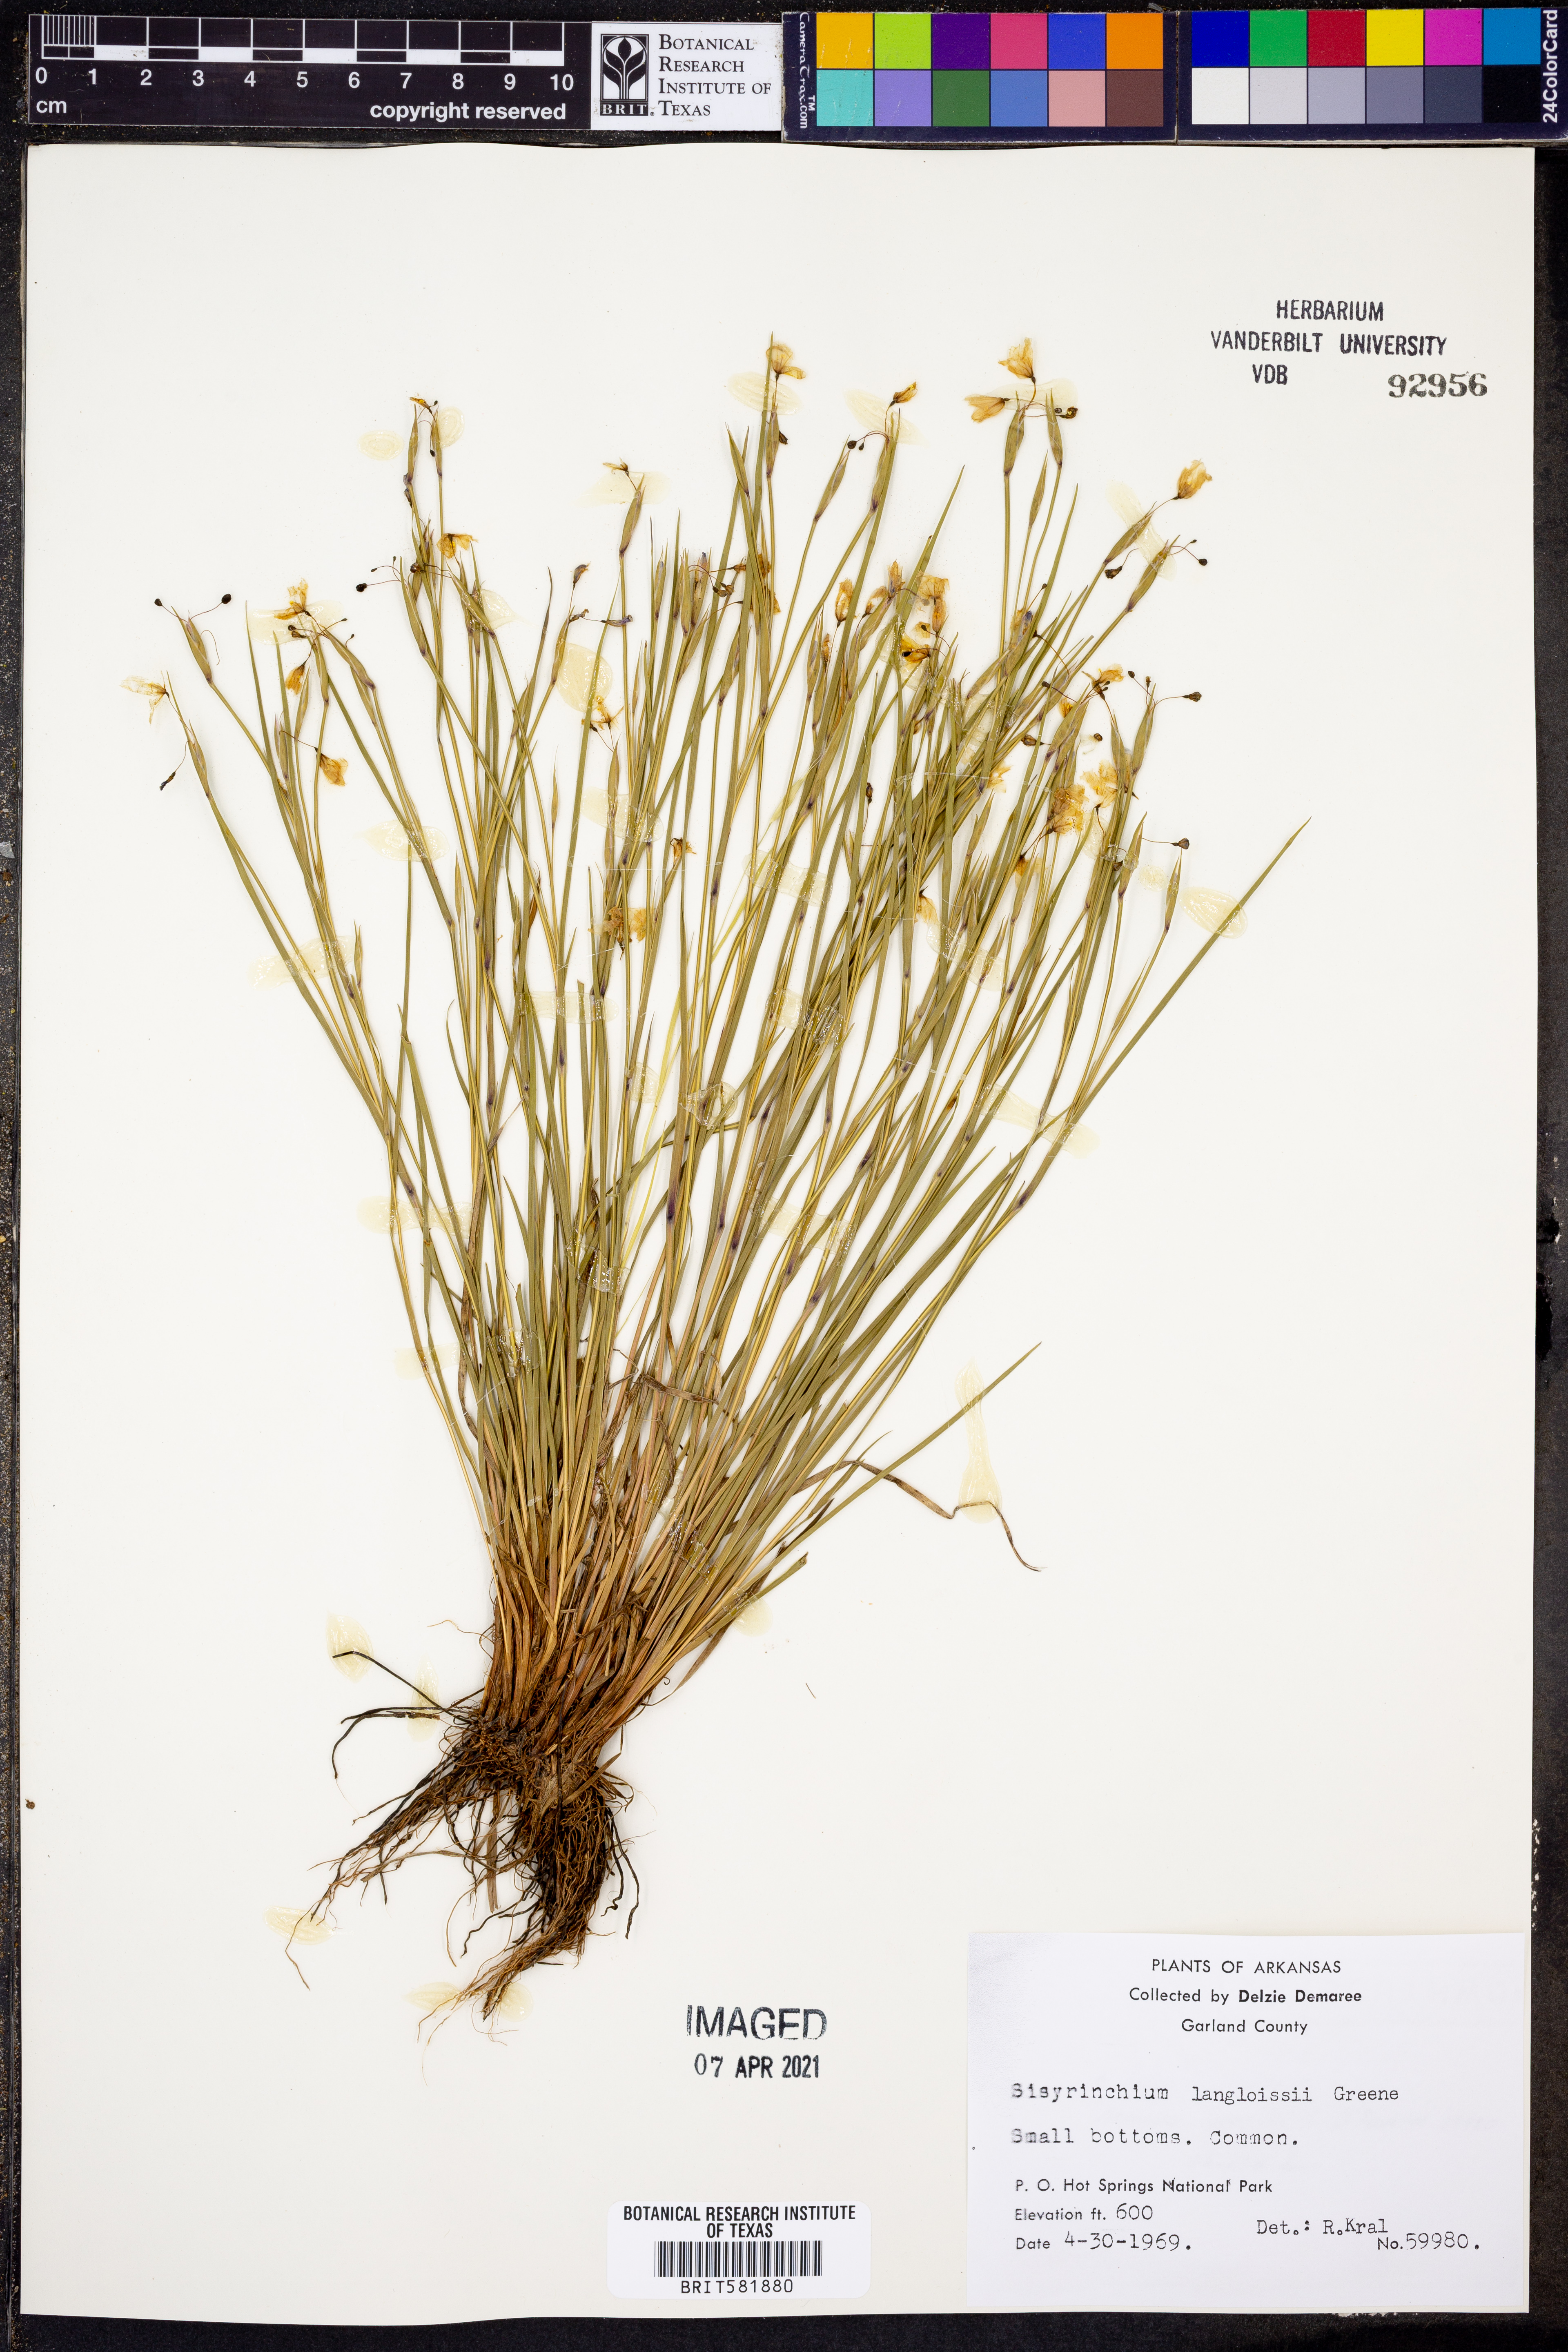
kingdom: Plantae
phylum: Tracheophyta
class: Liliopsida
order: Asparagales
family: Iridaceae
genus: Sisyrinchium
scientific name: Sisyrinchium langloisii
